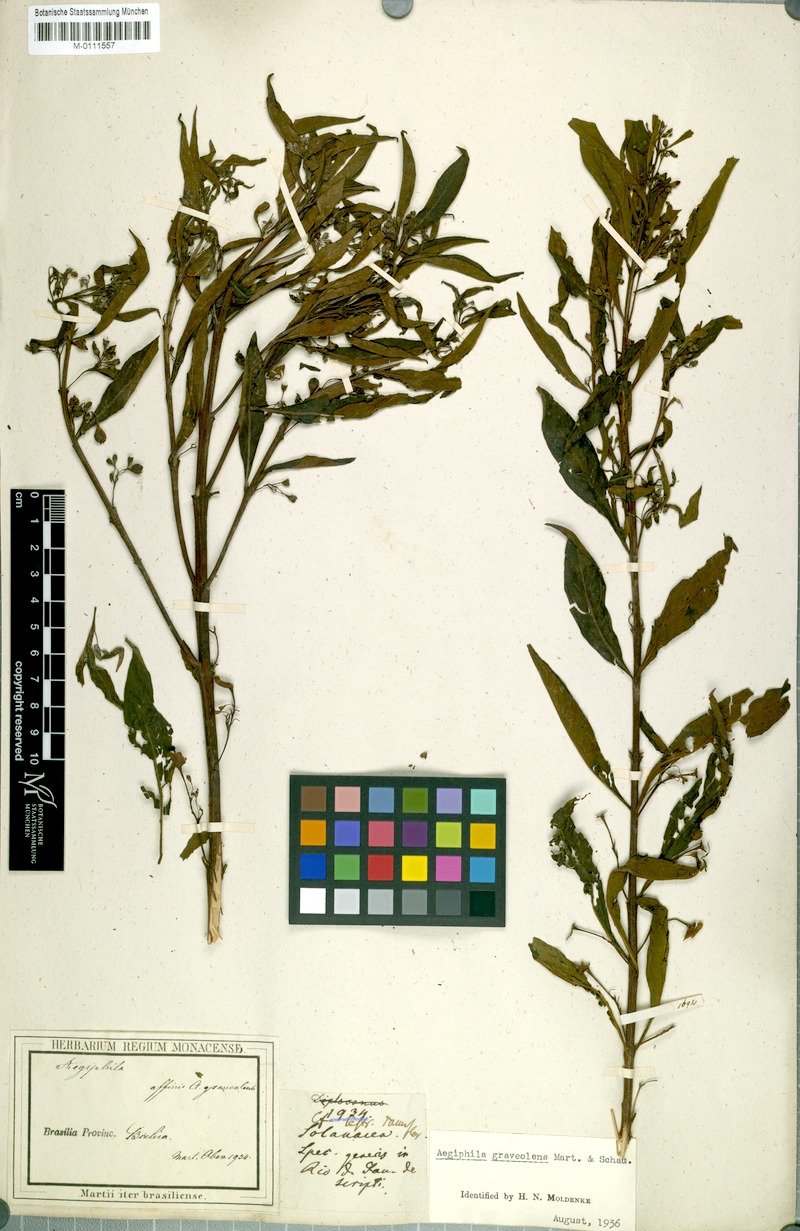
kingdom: Plantae
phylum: Tracheophyta
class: Magnoliopsida
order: Lamiales
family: Lamiaceae
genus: Aegiphila
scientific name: Aegiphila graveolens
